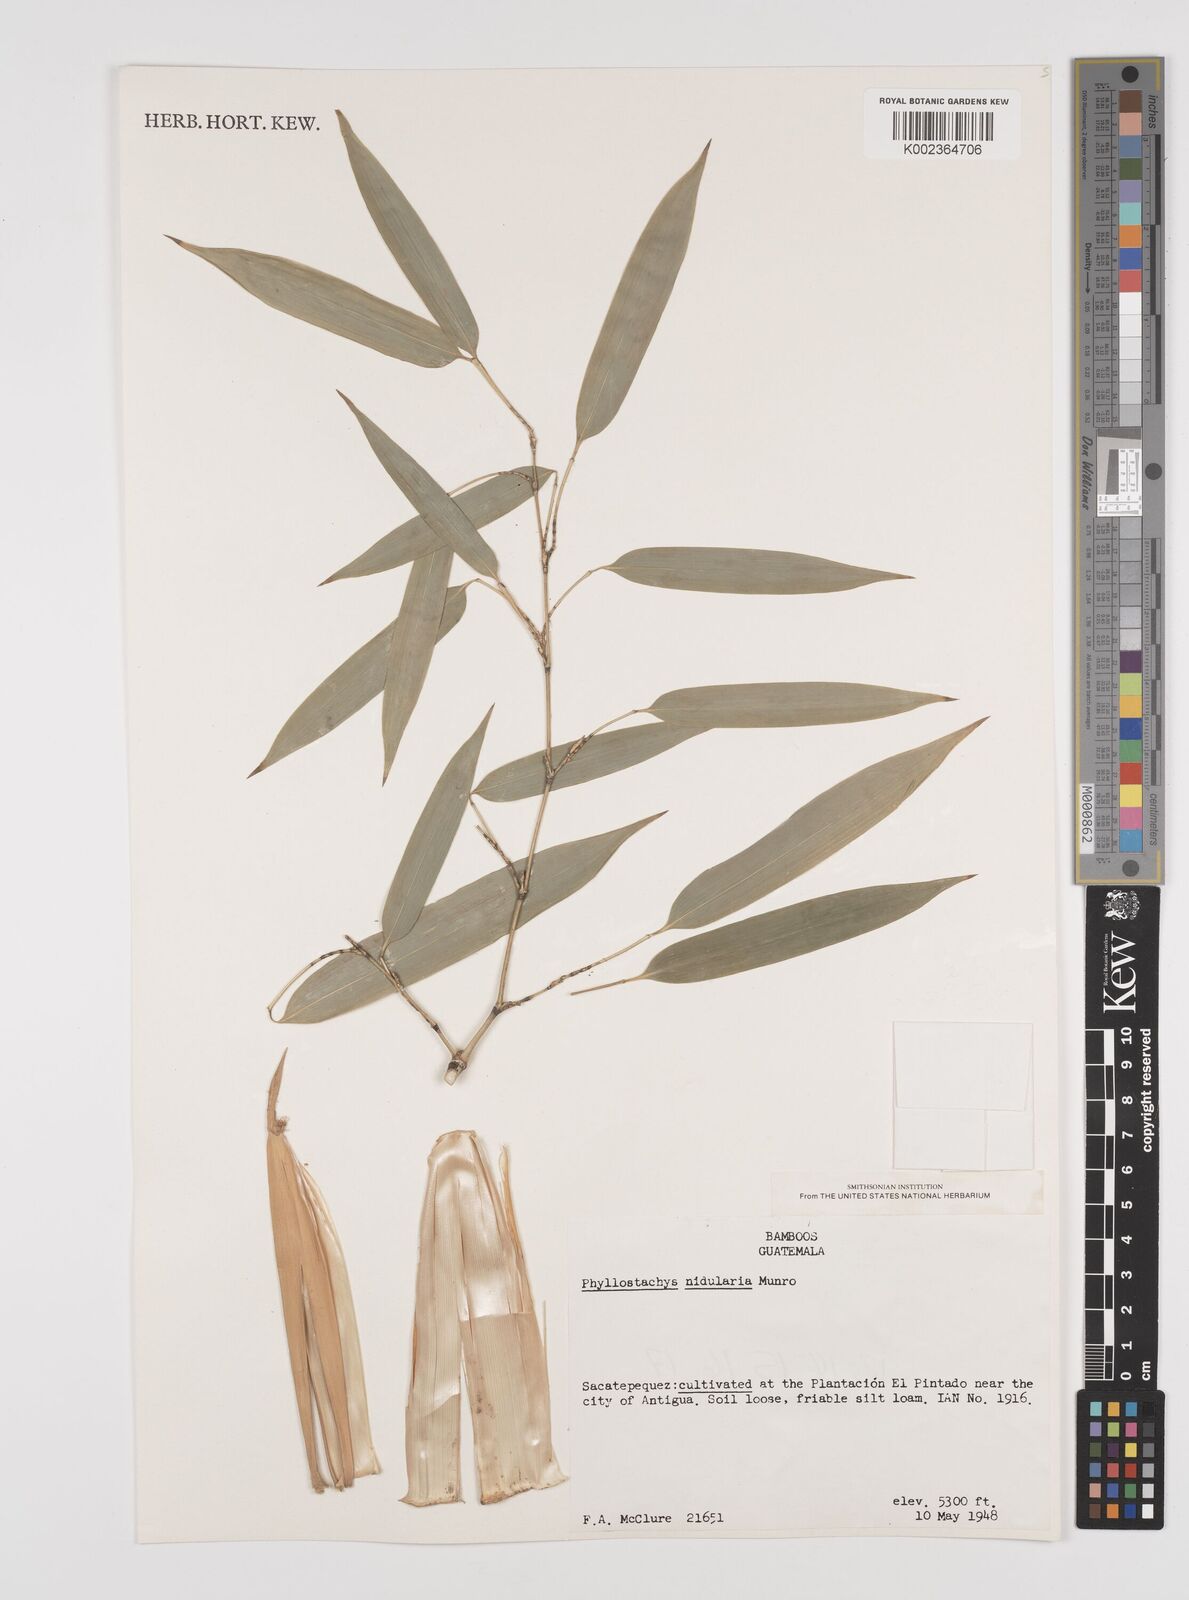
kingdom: Plantae
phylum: Tracheophyta
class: Liliopsida
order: Poales
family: Poaceae
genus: Phyllostachys
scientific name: Phyllostachys nidularia
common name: Broom bamboo
